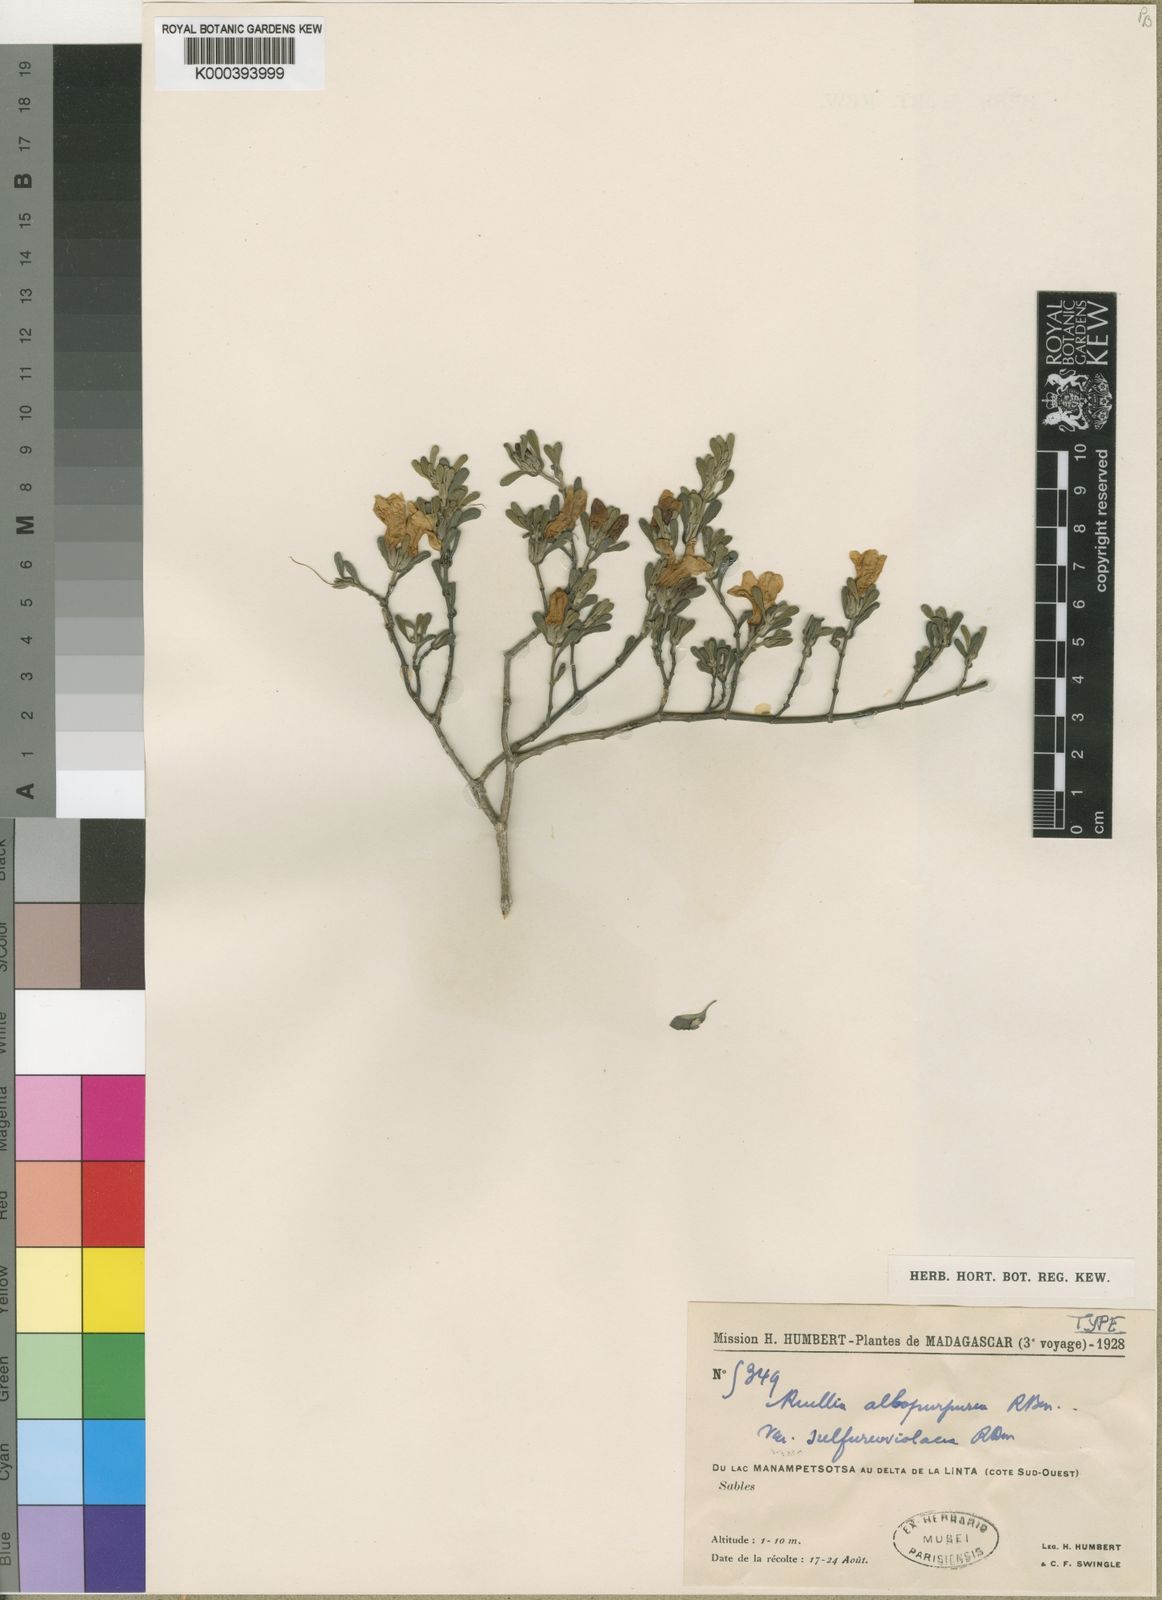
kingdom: Plantae
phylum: Tracheophyta
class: Magnoliopsida
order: Lamiales
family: Acanthaceae
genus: Ruellia
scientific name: Ruellia albopurpurea
